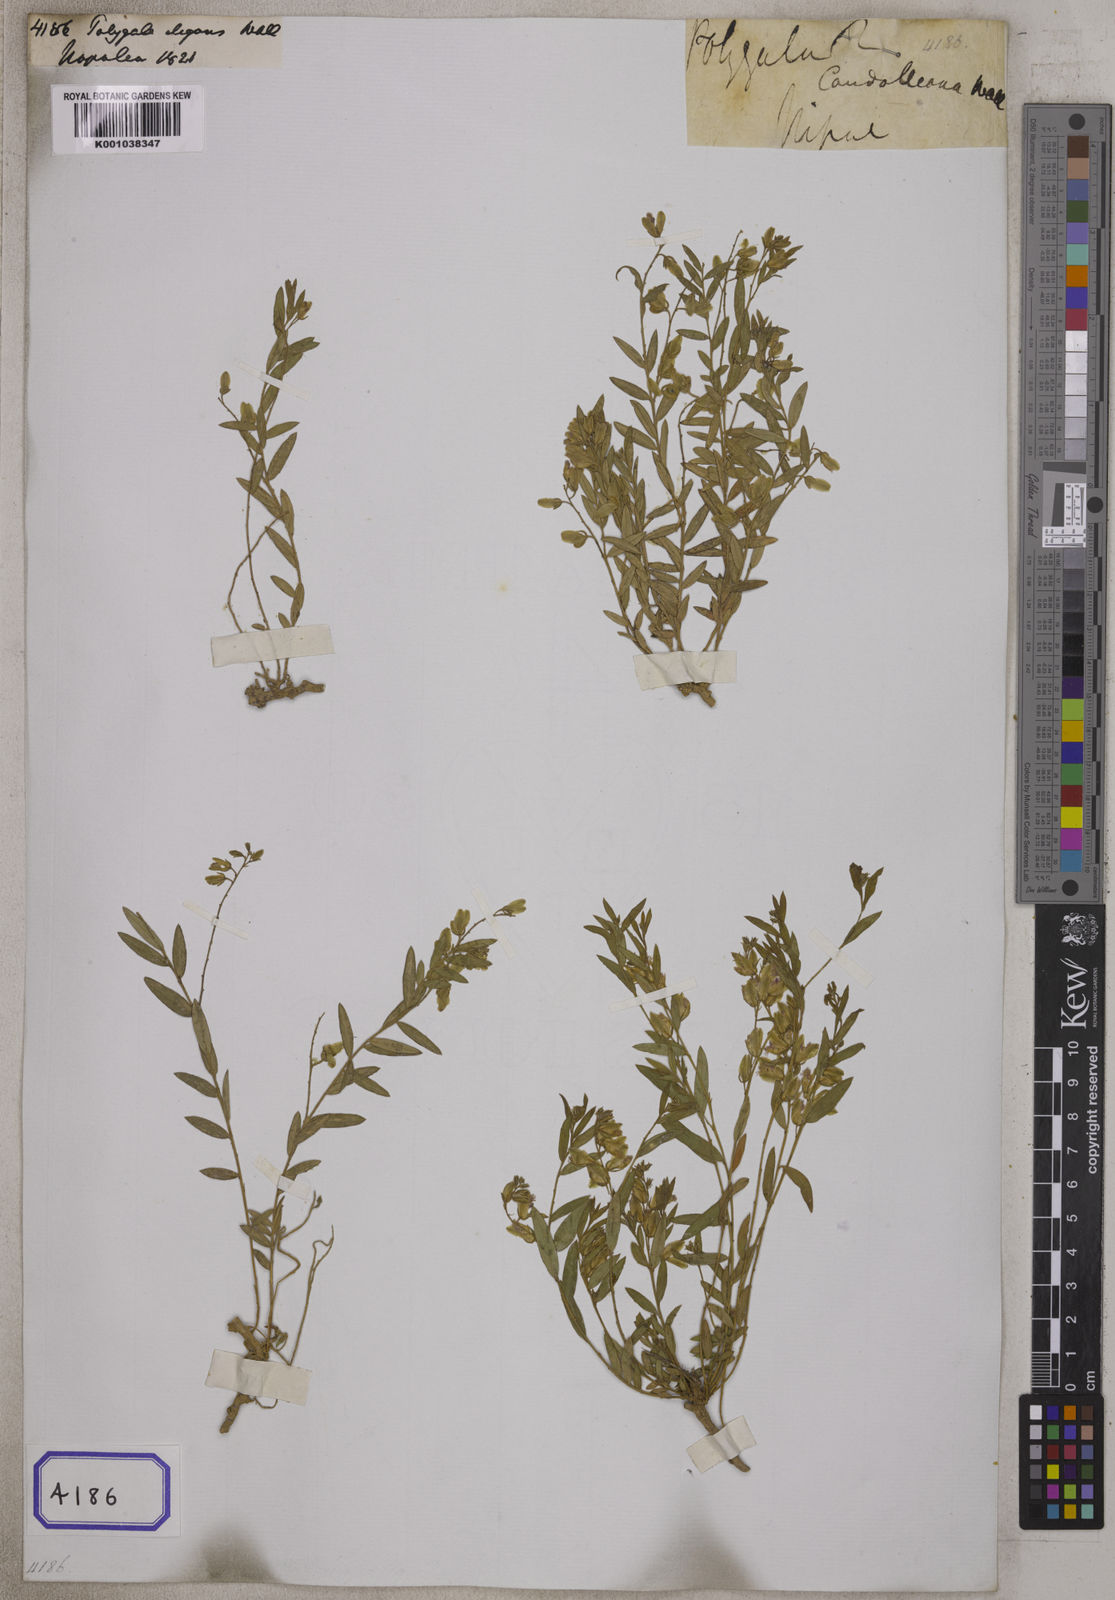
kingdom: Plantae
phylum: Tracheophyta
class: Magnoliopsida
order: Fabales
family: Polygalaceae
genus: Polygala
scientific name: Polygala
